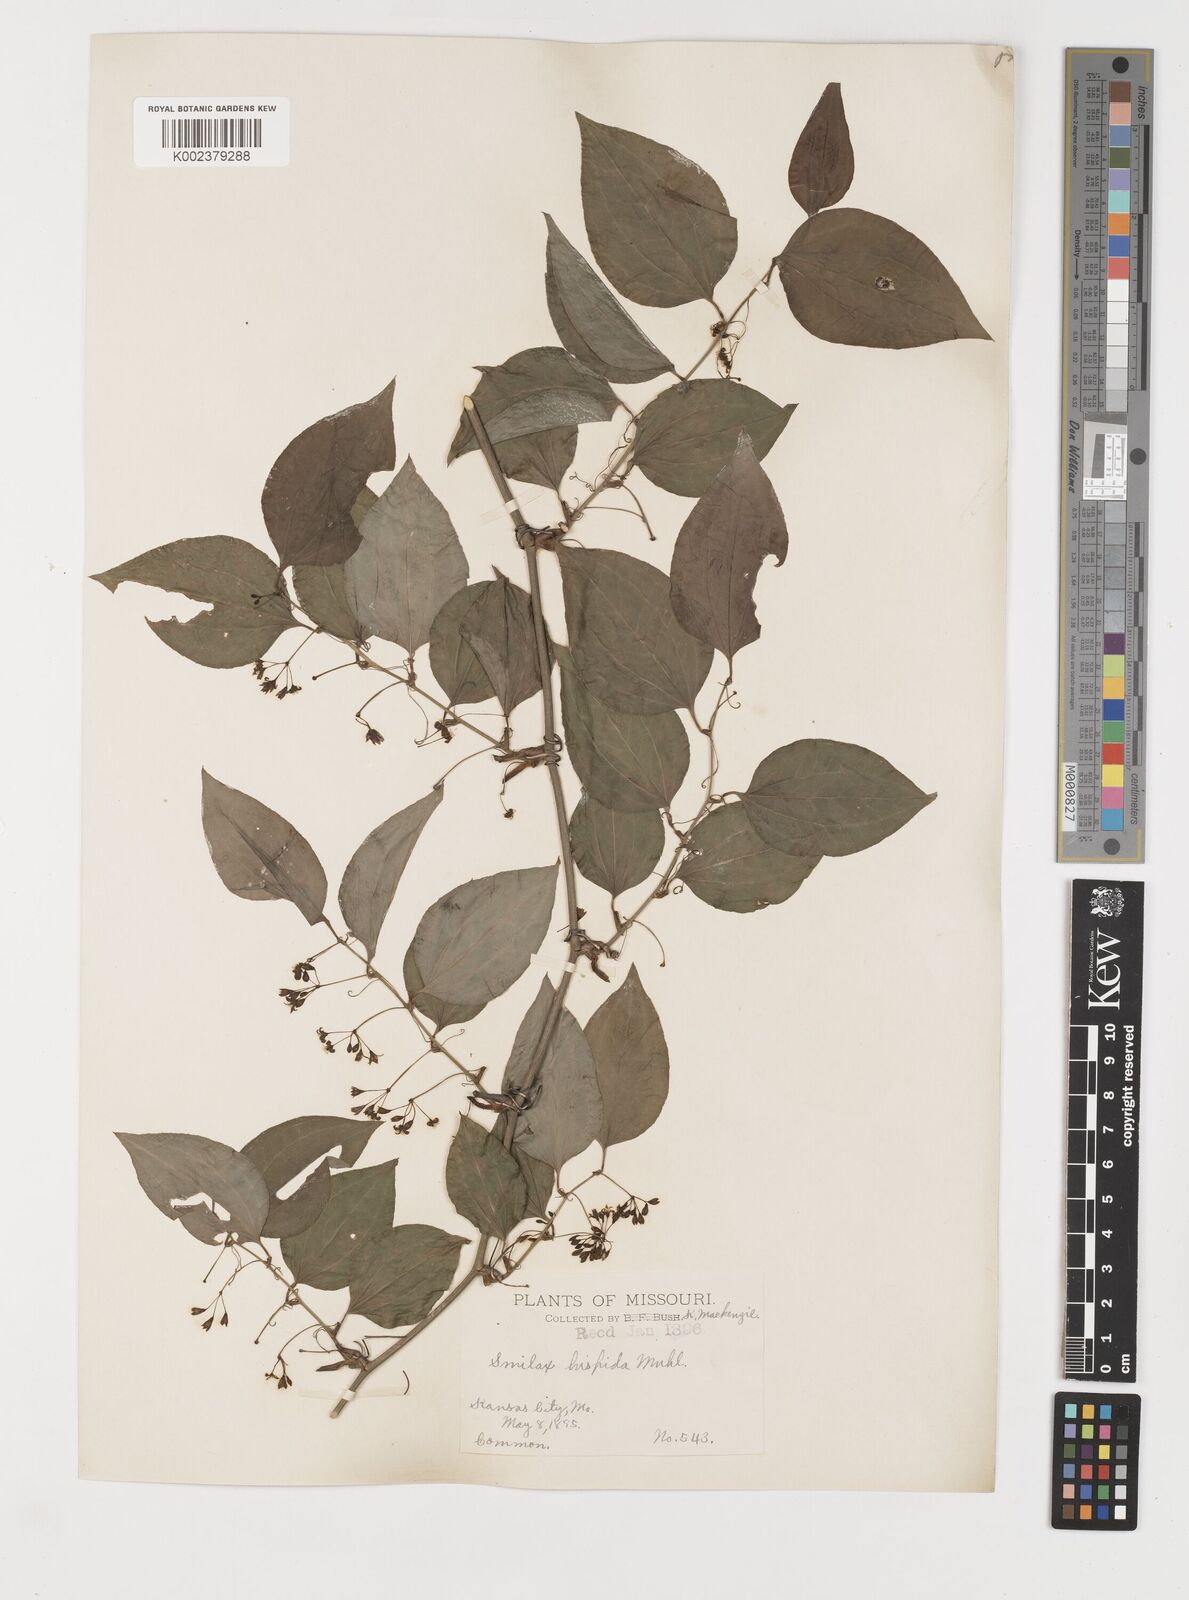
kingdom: Plantae
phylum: Tracheophyta
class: Liliopsida
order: Liliales
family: Smilacaceae
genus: Smilax
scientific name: Smilax tamnoides
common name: Hellfetter
